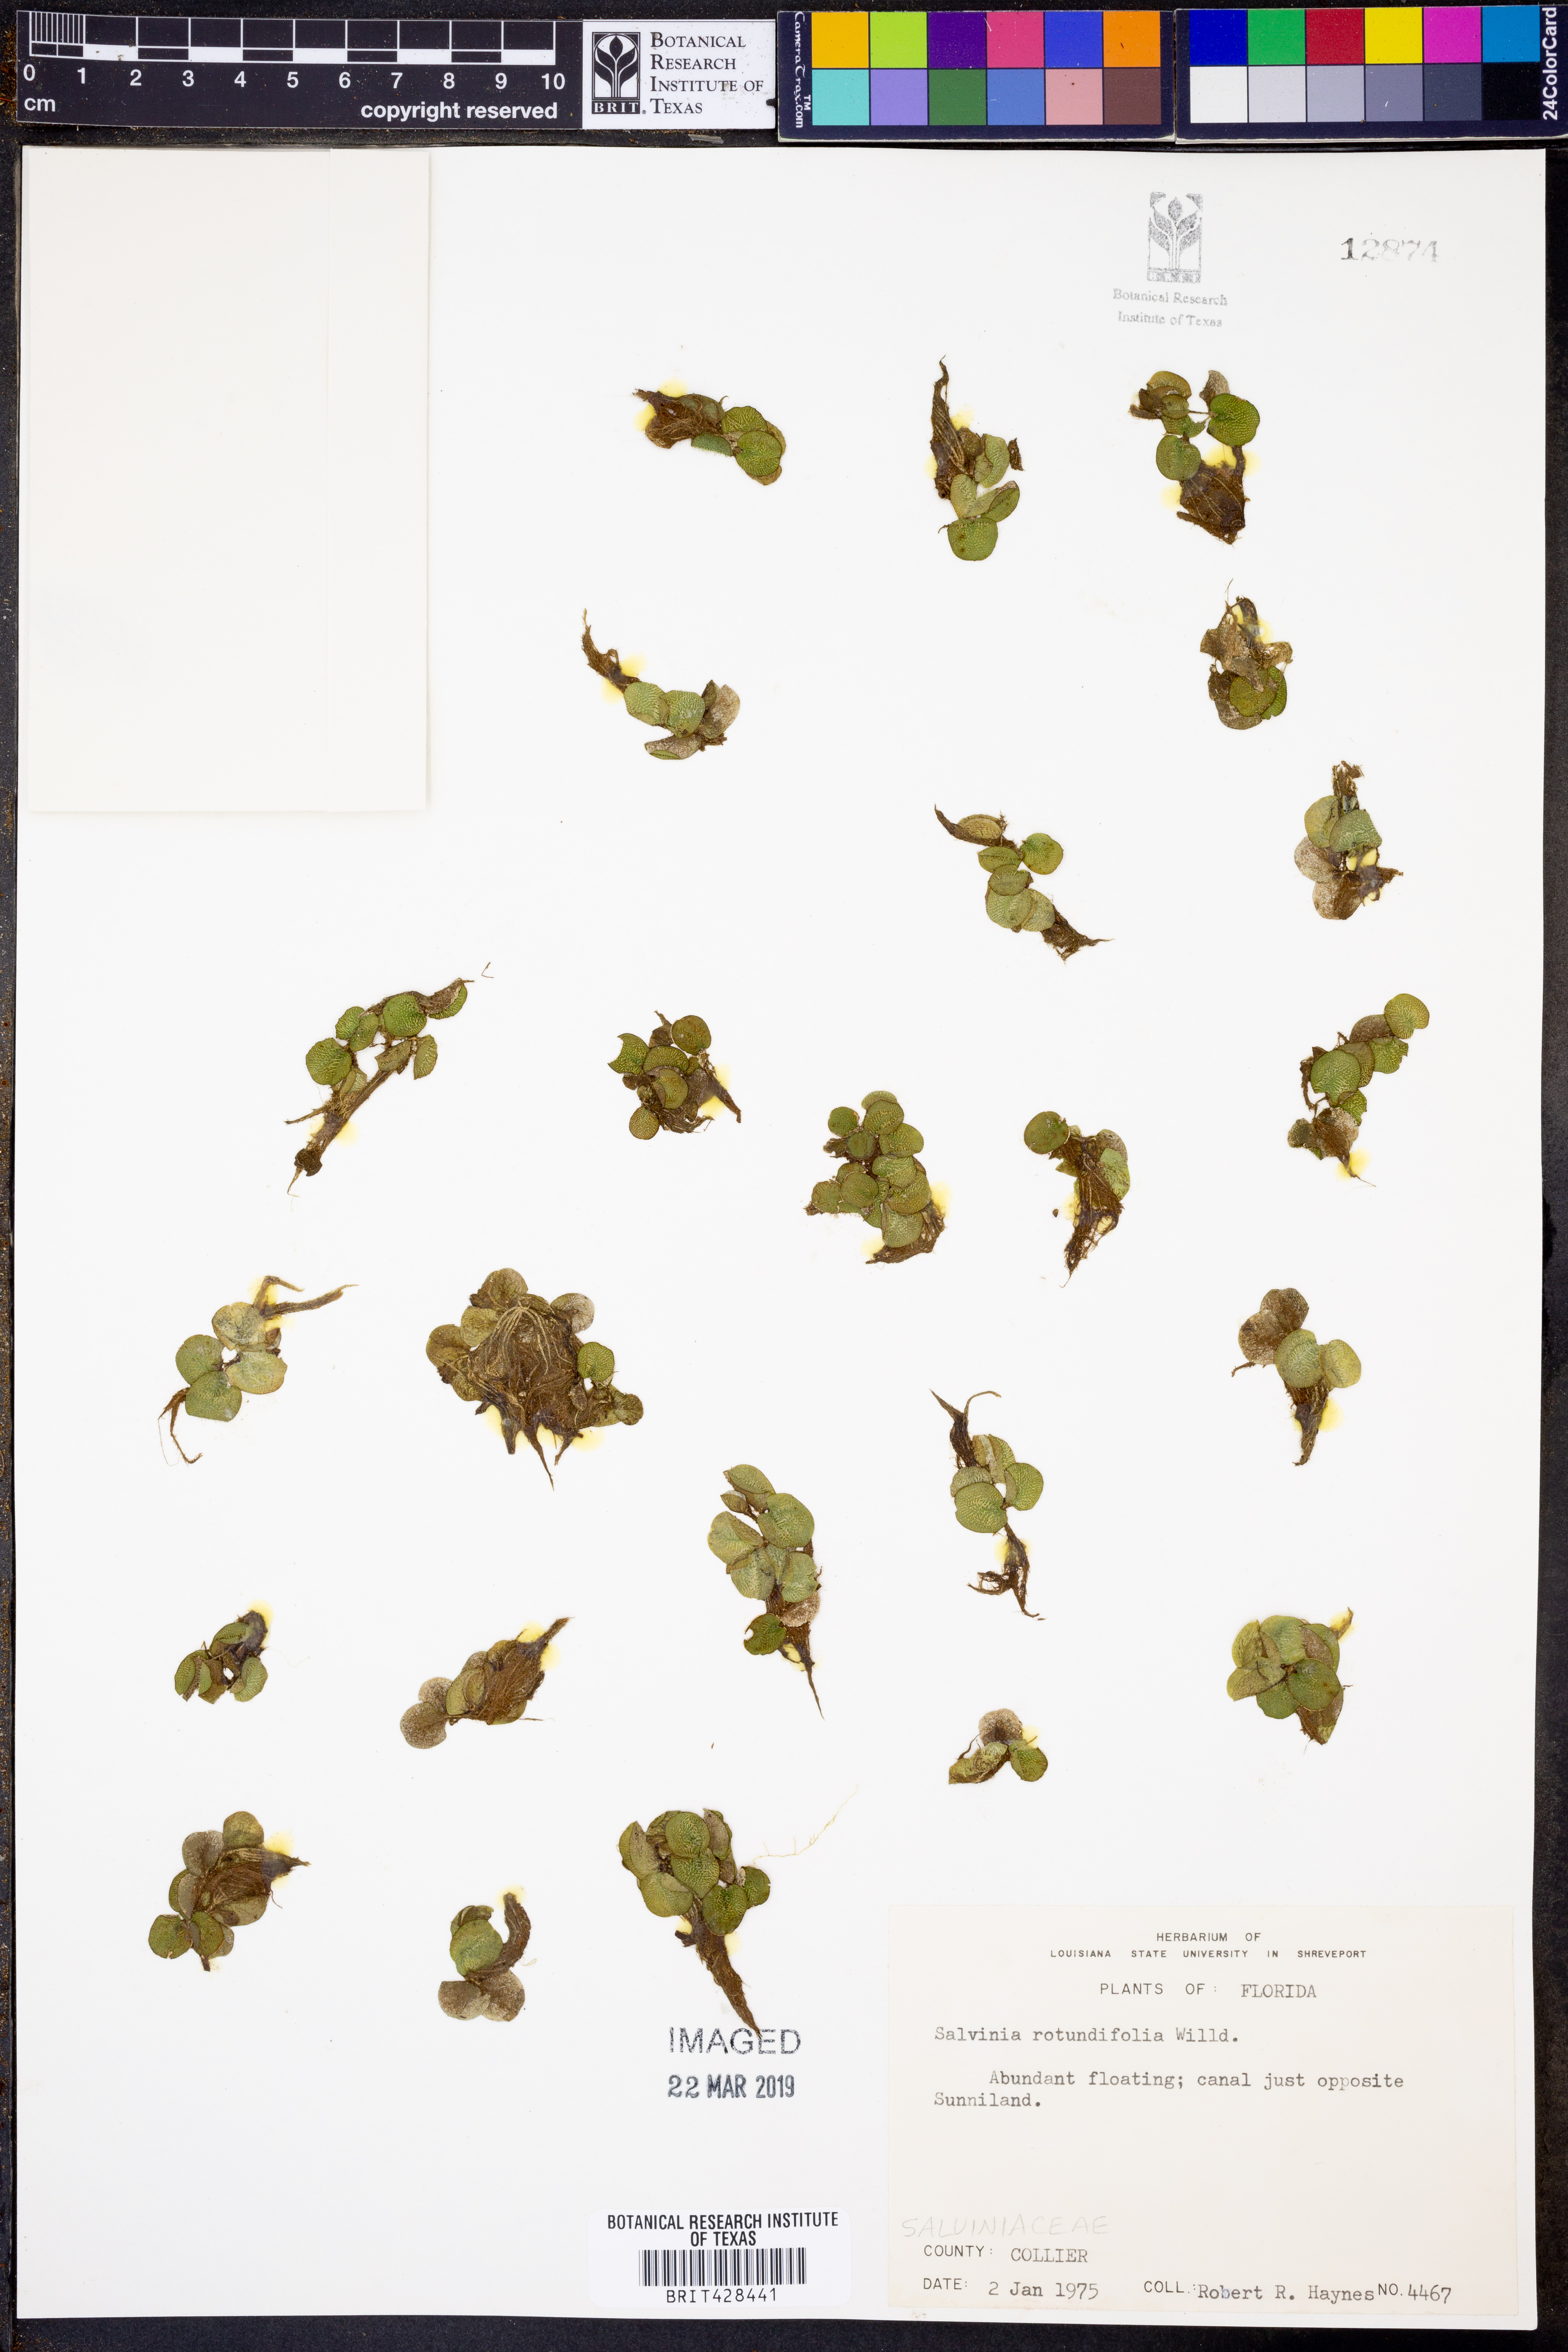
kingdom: Plantae
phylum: Tracheophyta
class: Polypodiopsida
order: Salviniales
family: Salviniaceae
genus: Salvinia
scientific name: Salvinia auriculata
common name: African payal
